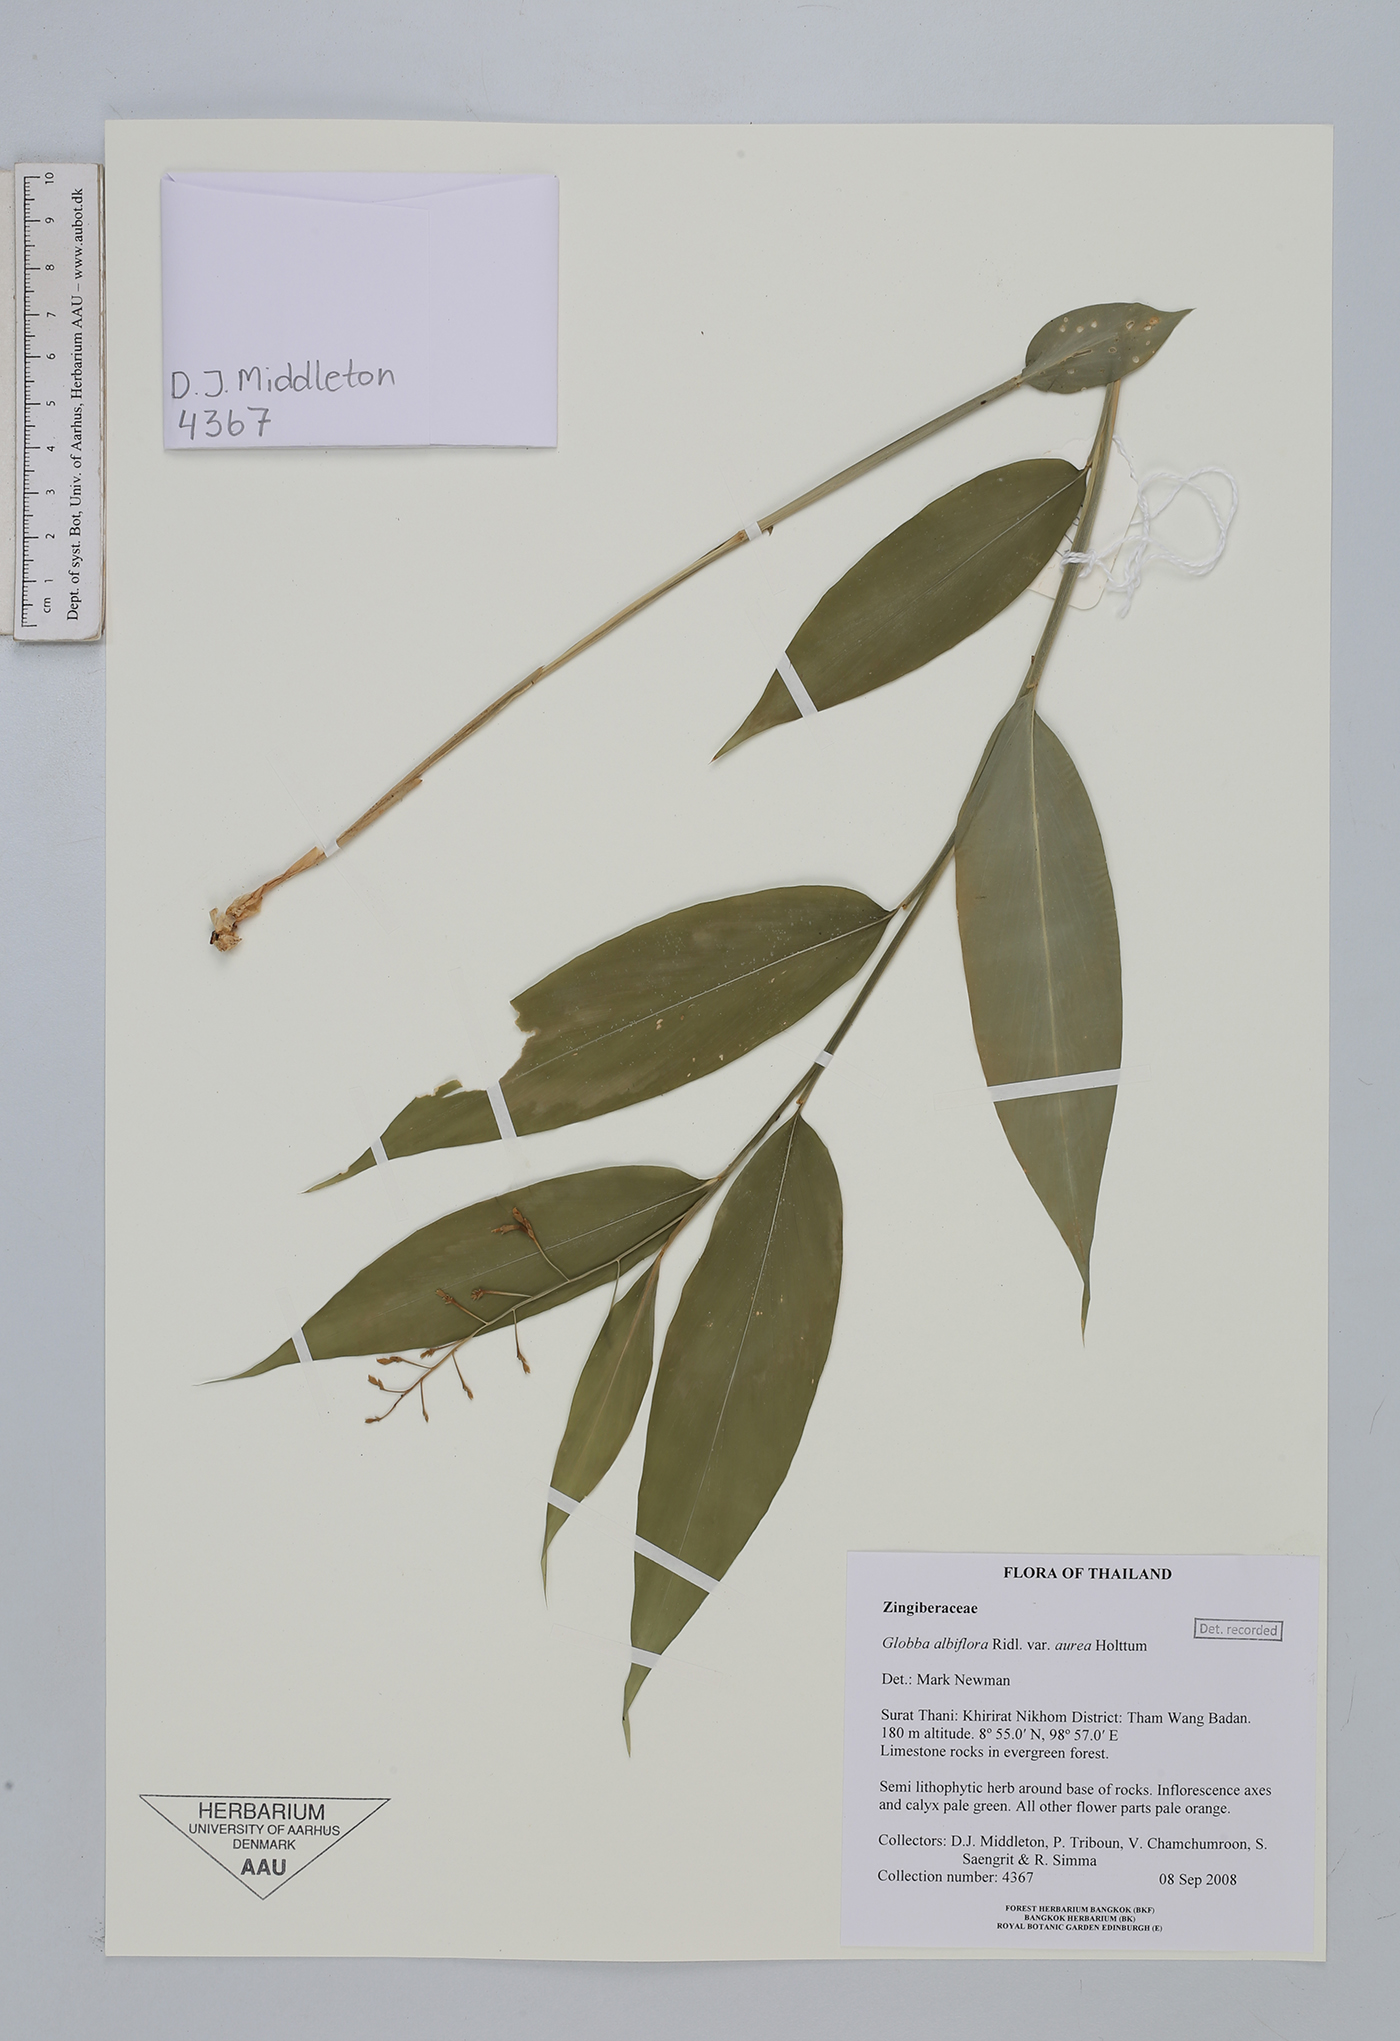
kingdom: Plantae
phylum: Tracheophyta
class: Liliopsida
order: Zingiberales
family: Zingiberaceae
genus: Globba
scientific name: Globba newmanii
